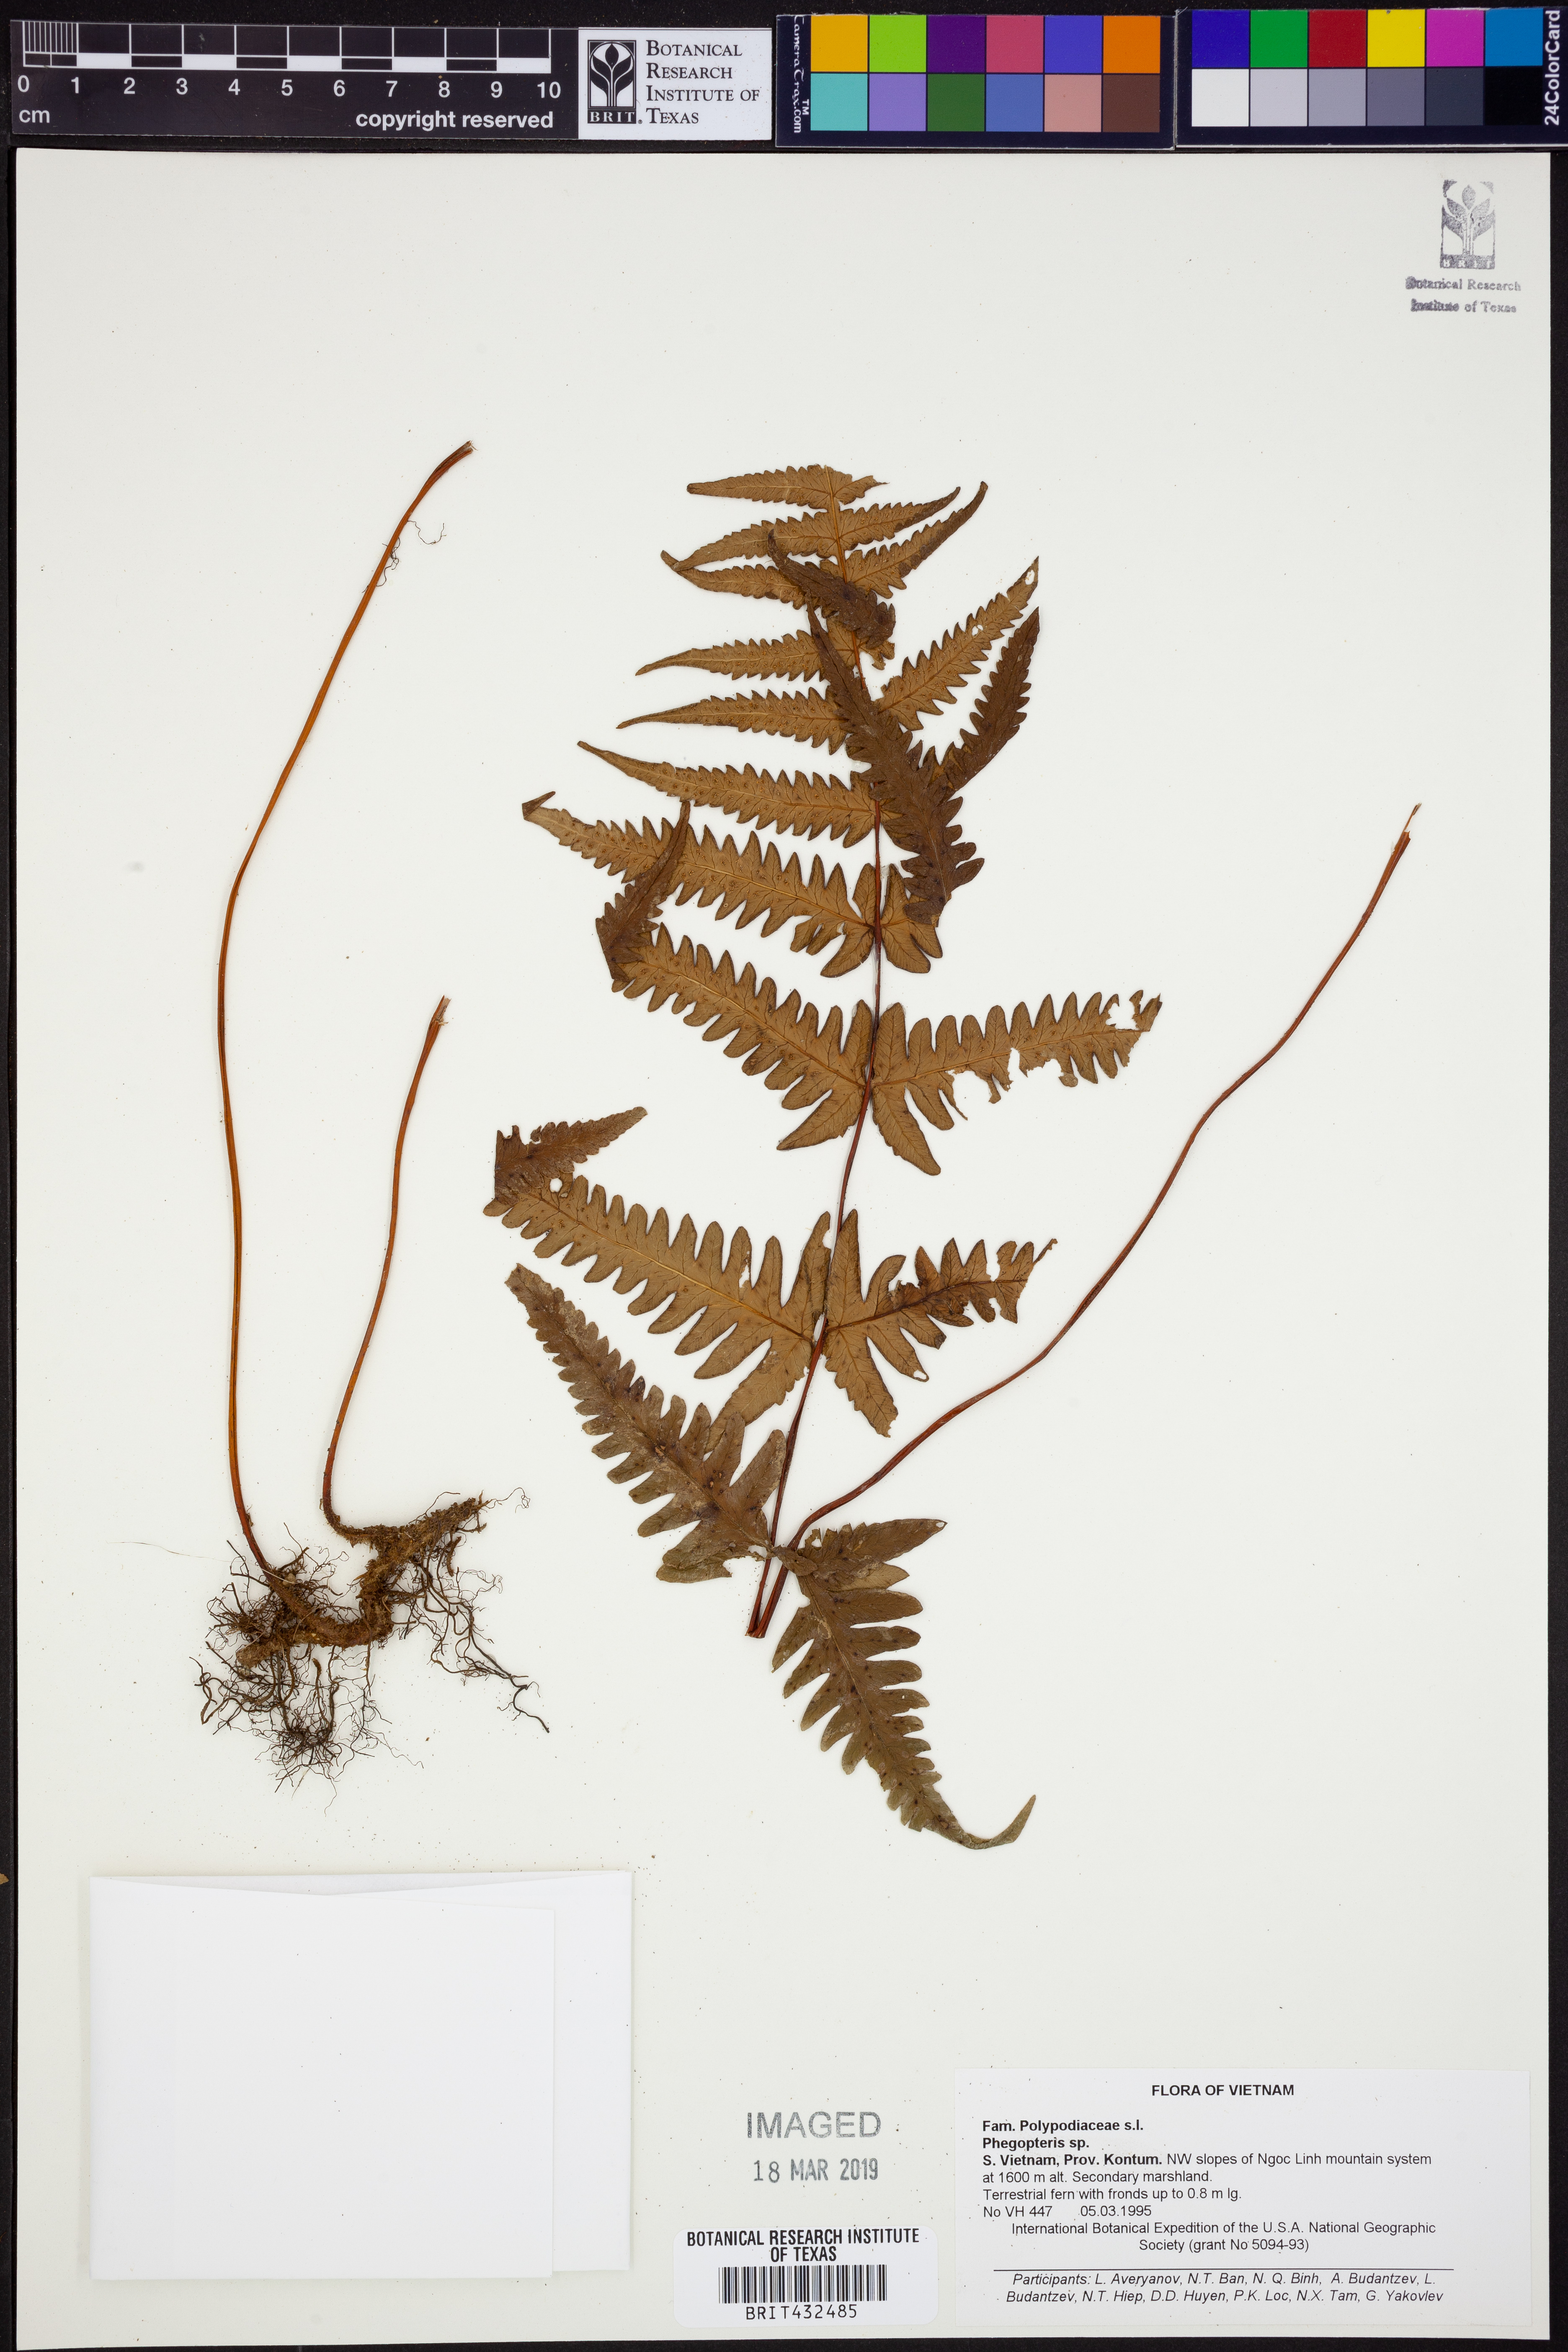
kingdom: Plantae
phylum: Tracheophyta
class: Polypodiopsida
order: Polypodiales
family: Thelypteridaceae
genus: Phegopteris
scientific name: Phegopteris
